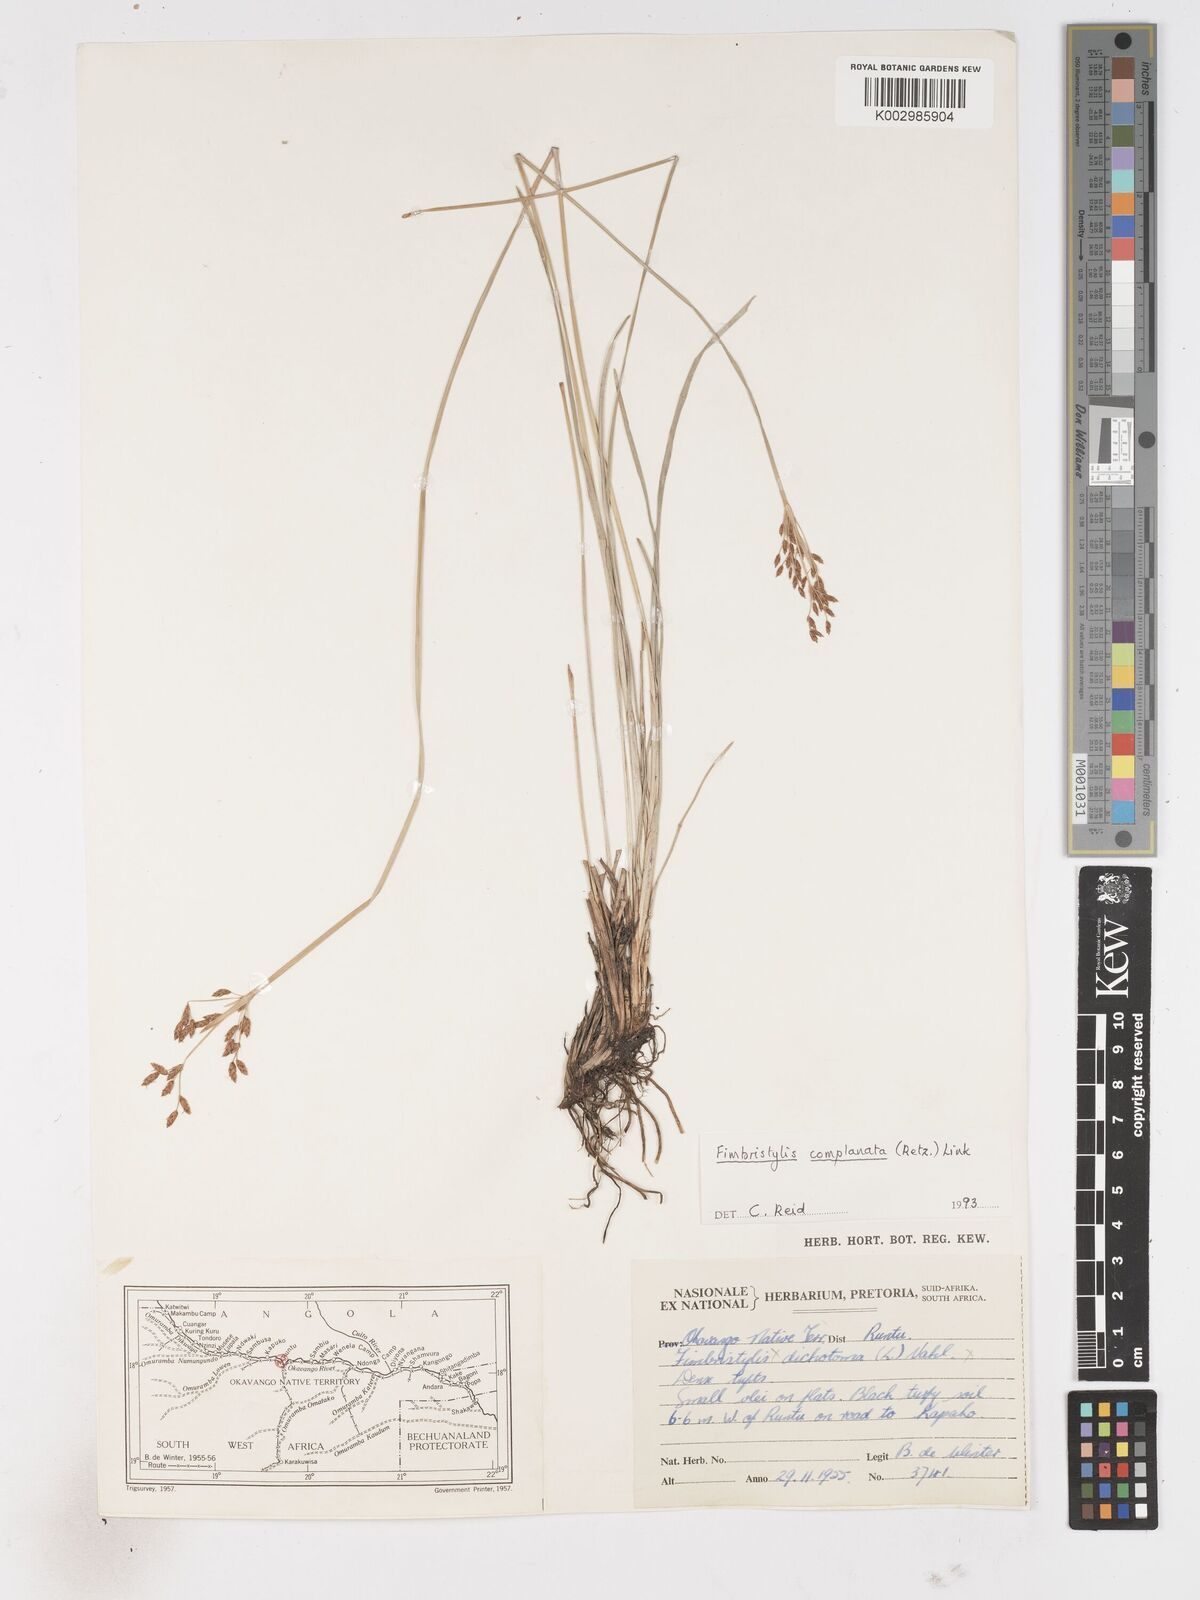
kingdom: Plantae
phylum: Tracheophyta
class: Liliopsida
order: Poales
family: Cyperaceae
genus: Fimbristylis
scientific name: Fimbristylis complanata
